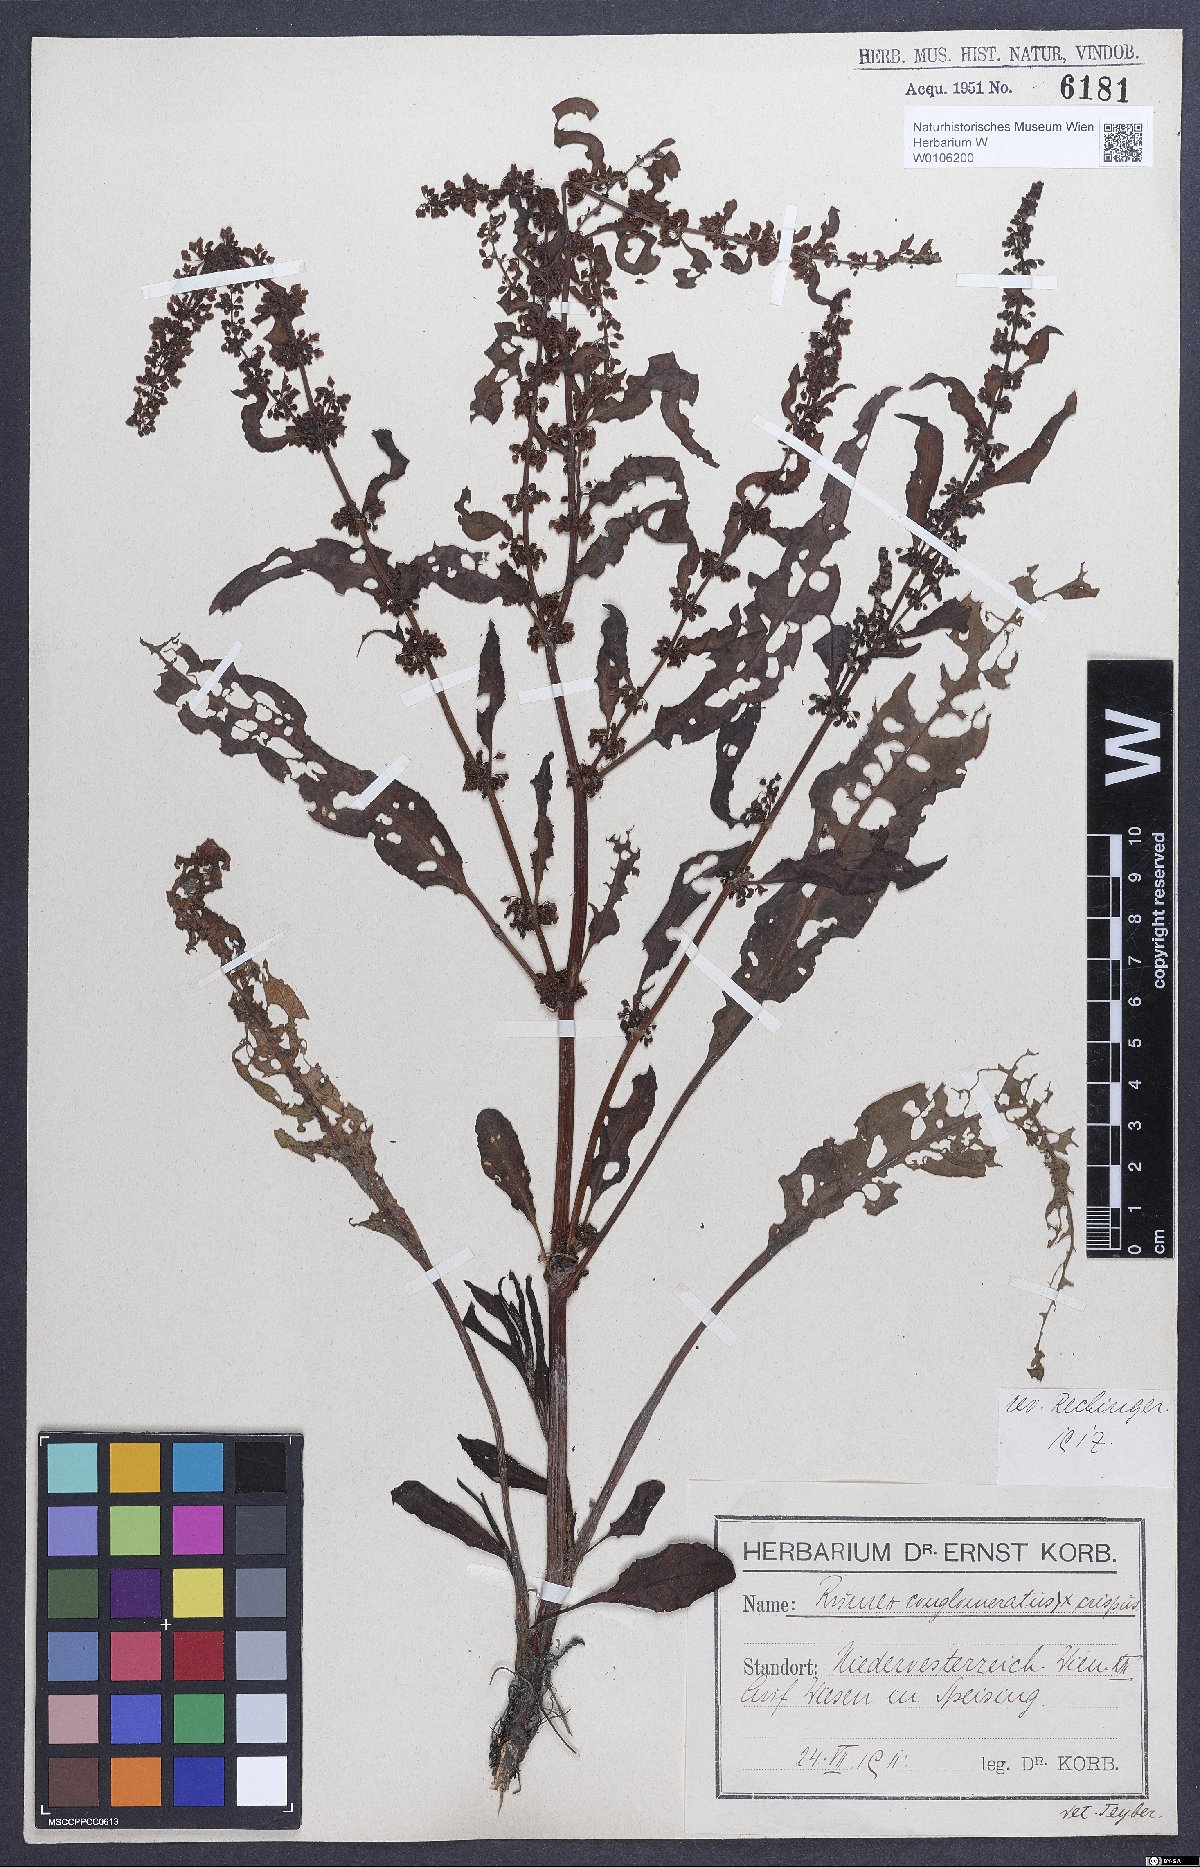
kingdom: Plantae
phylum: Tracheophyta
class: Magnoliopsida
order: Caryophyllales
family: Polygonaceae
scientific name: Polygonaceae
